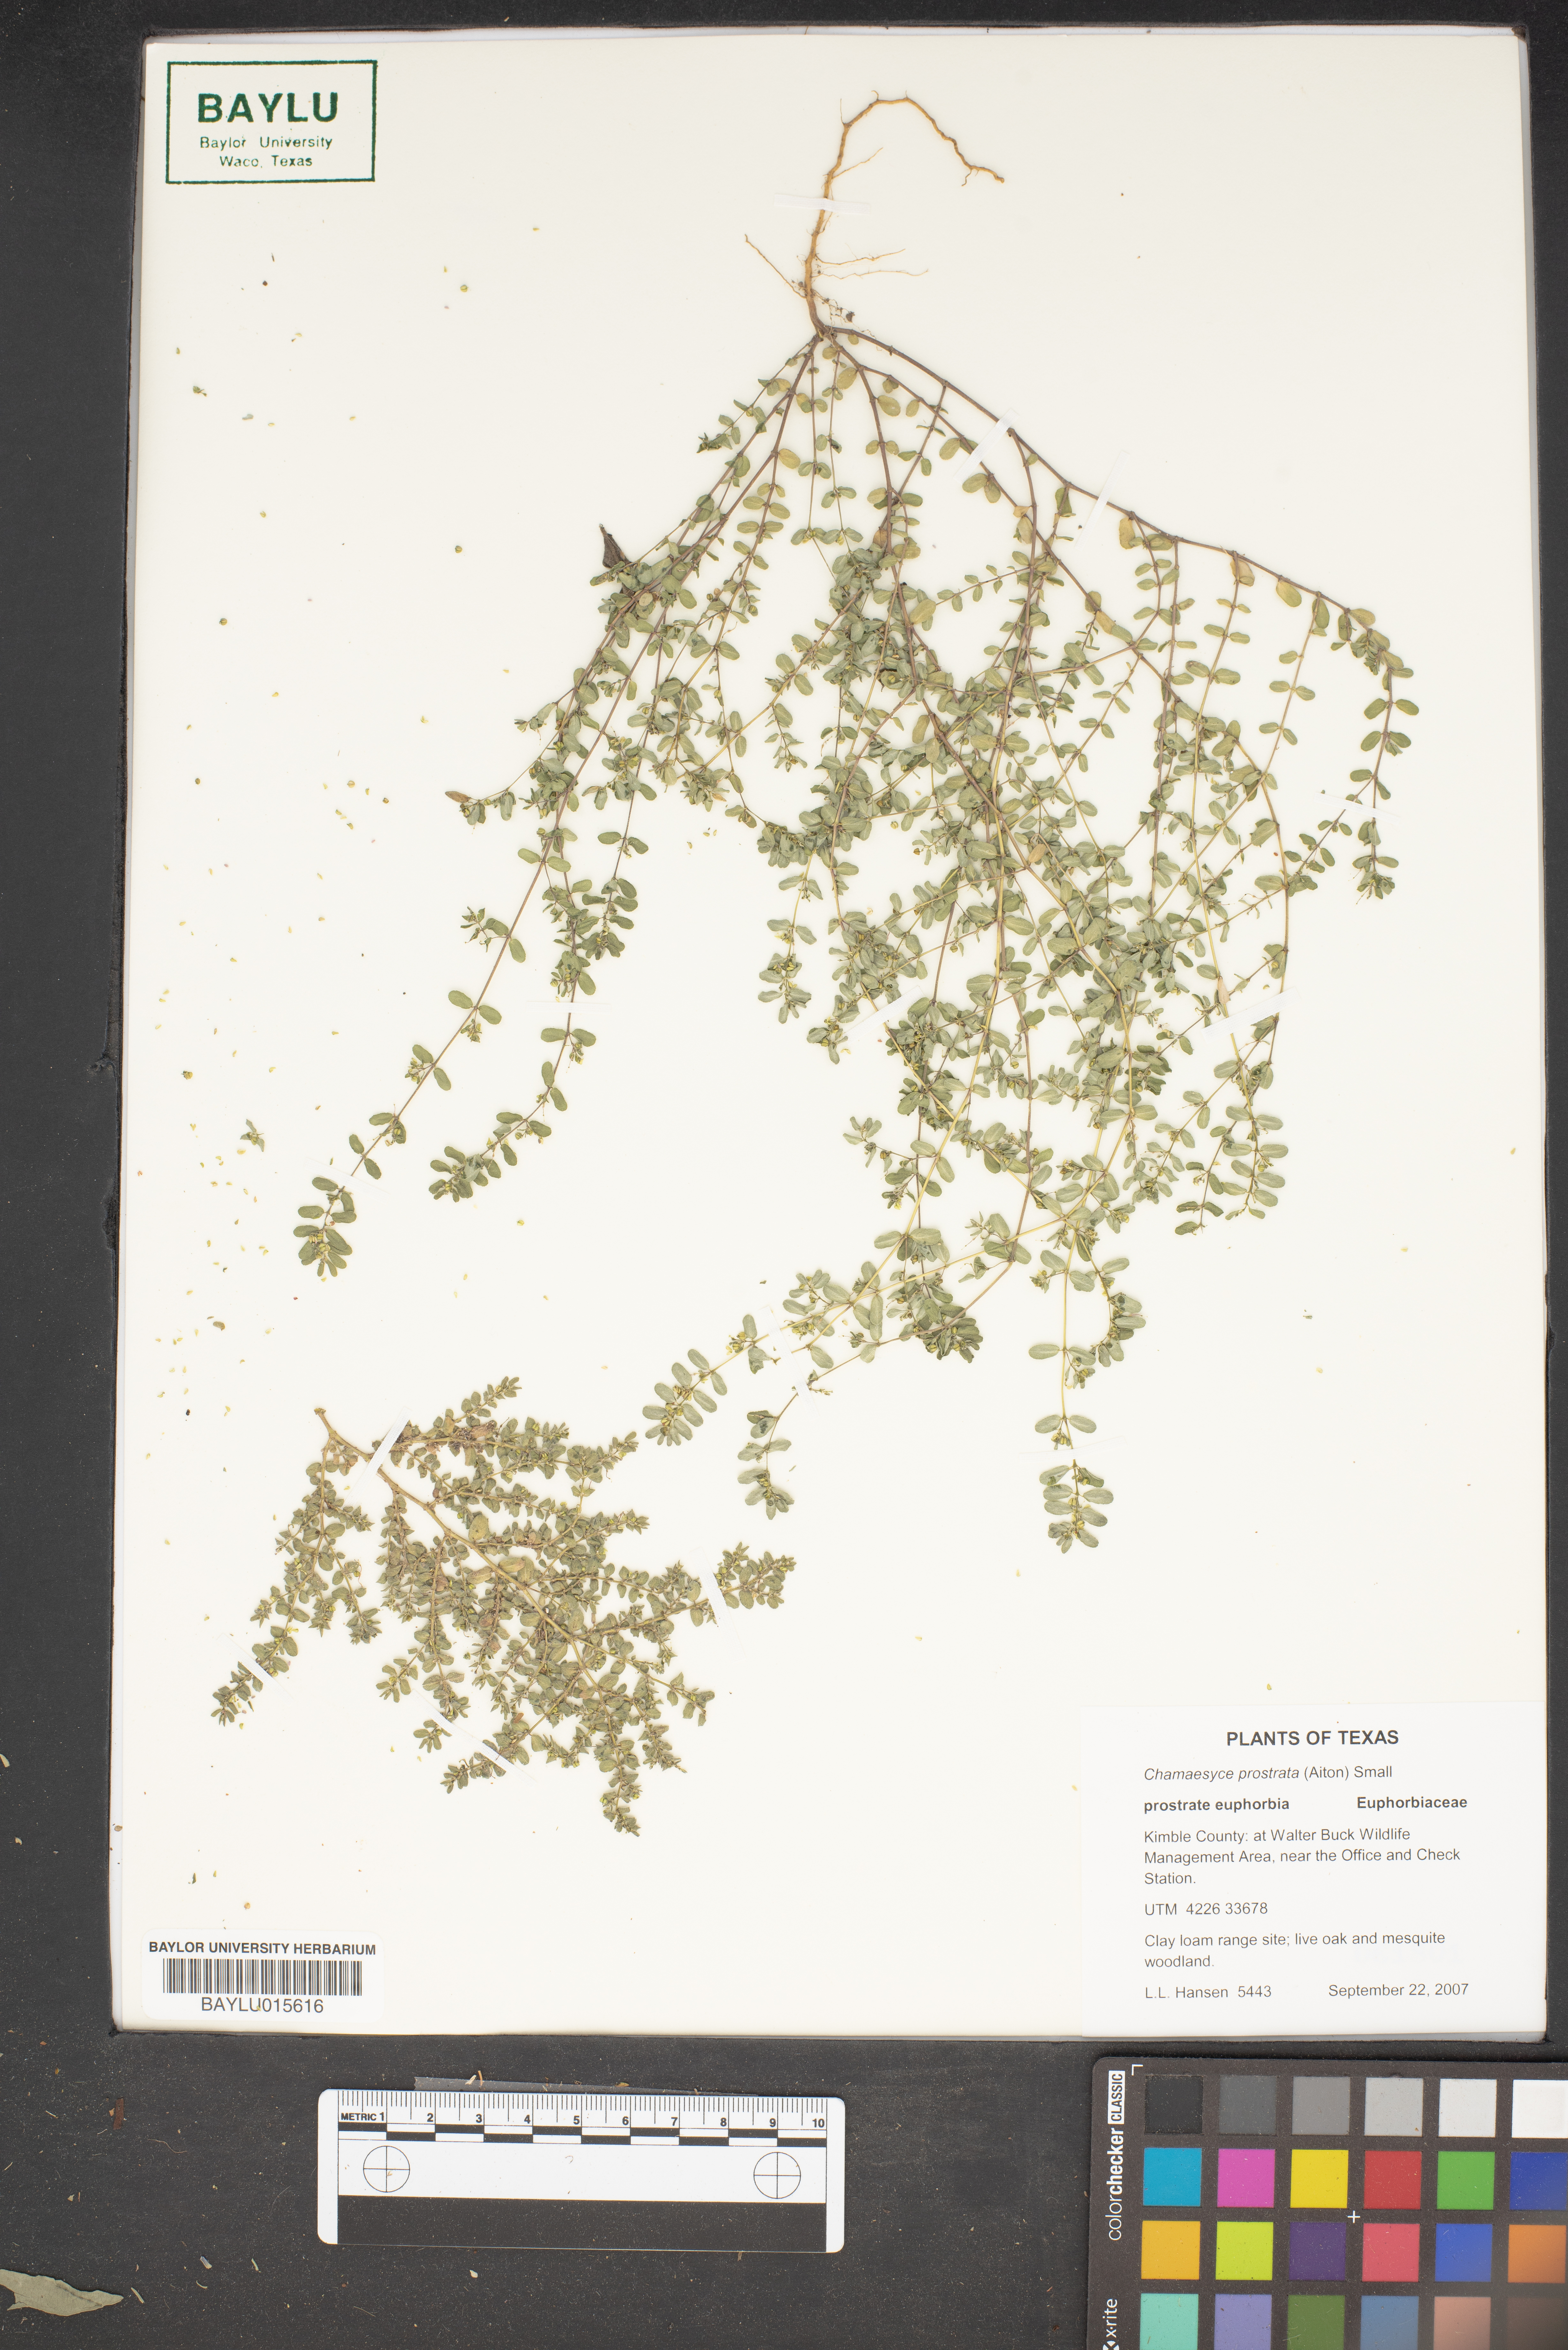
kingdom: Plantae
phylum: Tracheophyta
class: Magnoliopsida
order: Malpighiales
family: Euphorbiaceae
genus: Euphorbia
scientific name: Euphorbia prostrata
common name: Prostrate sandmat
